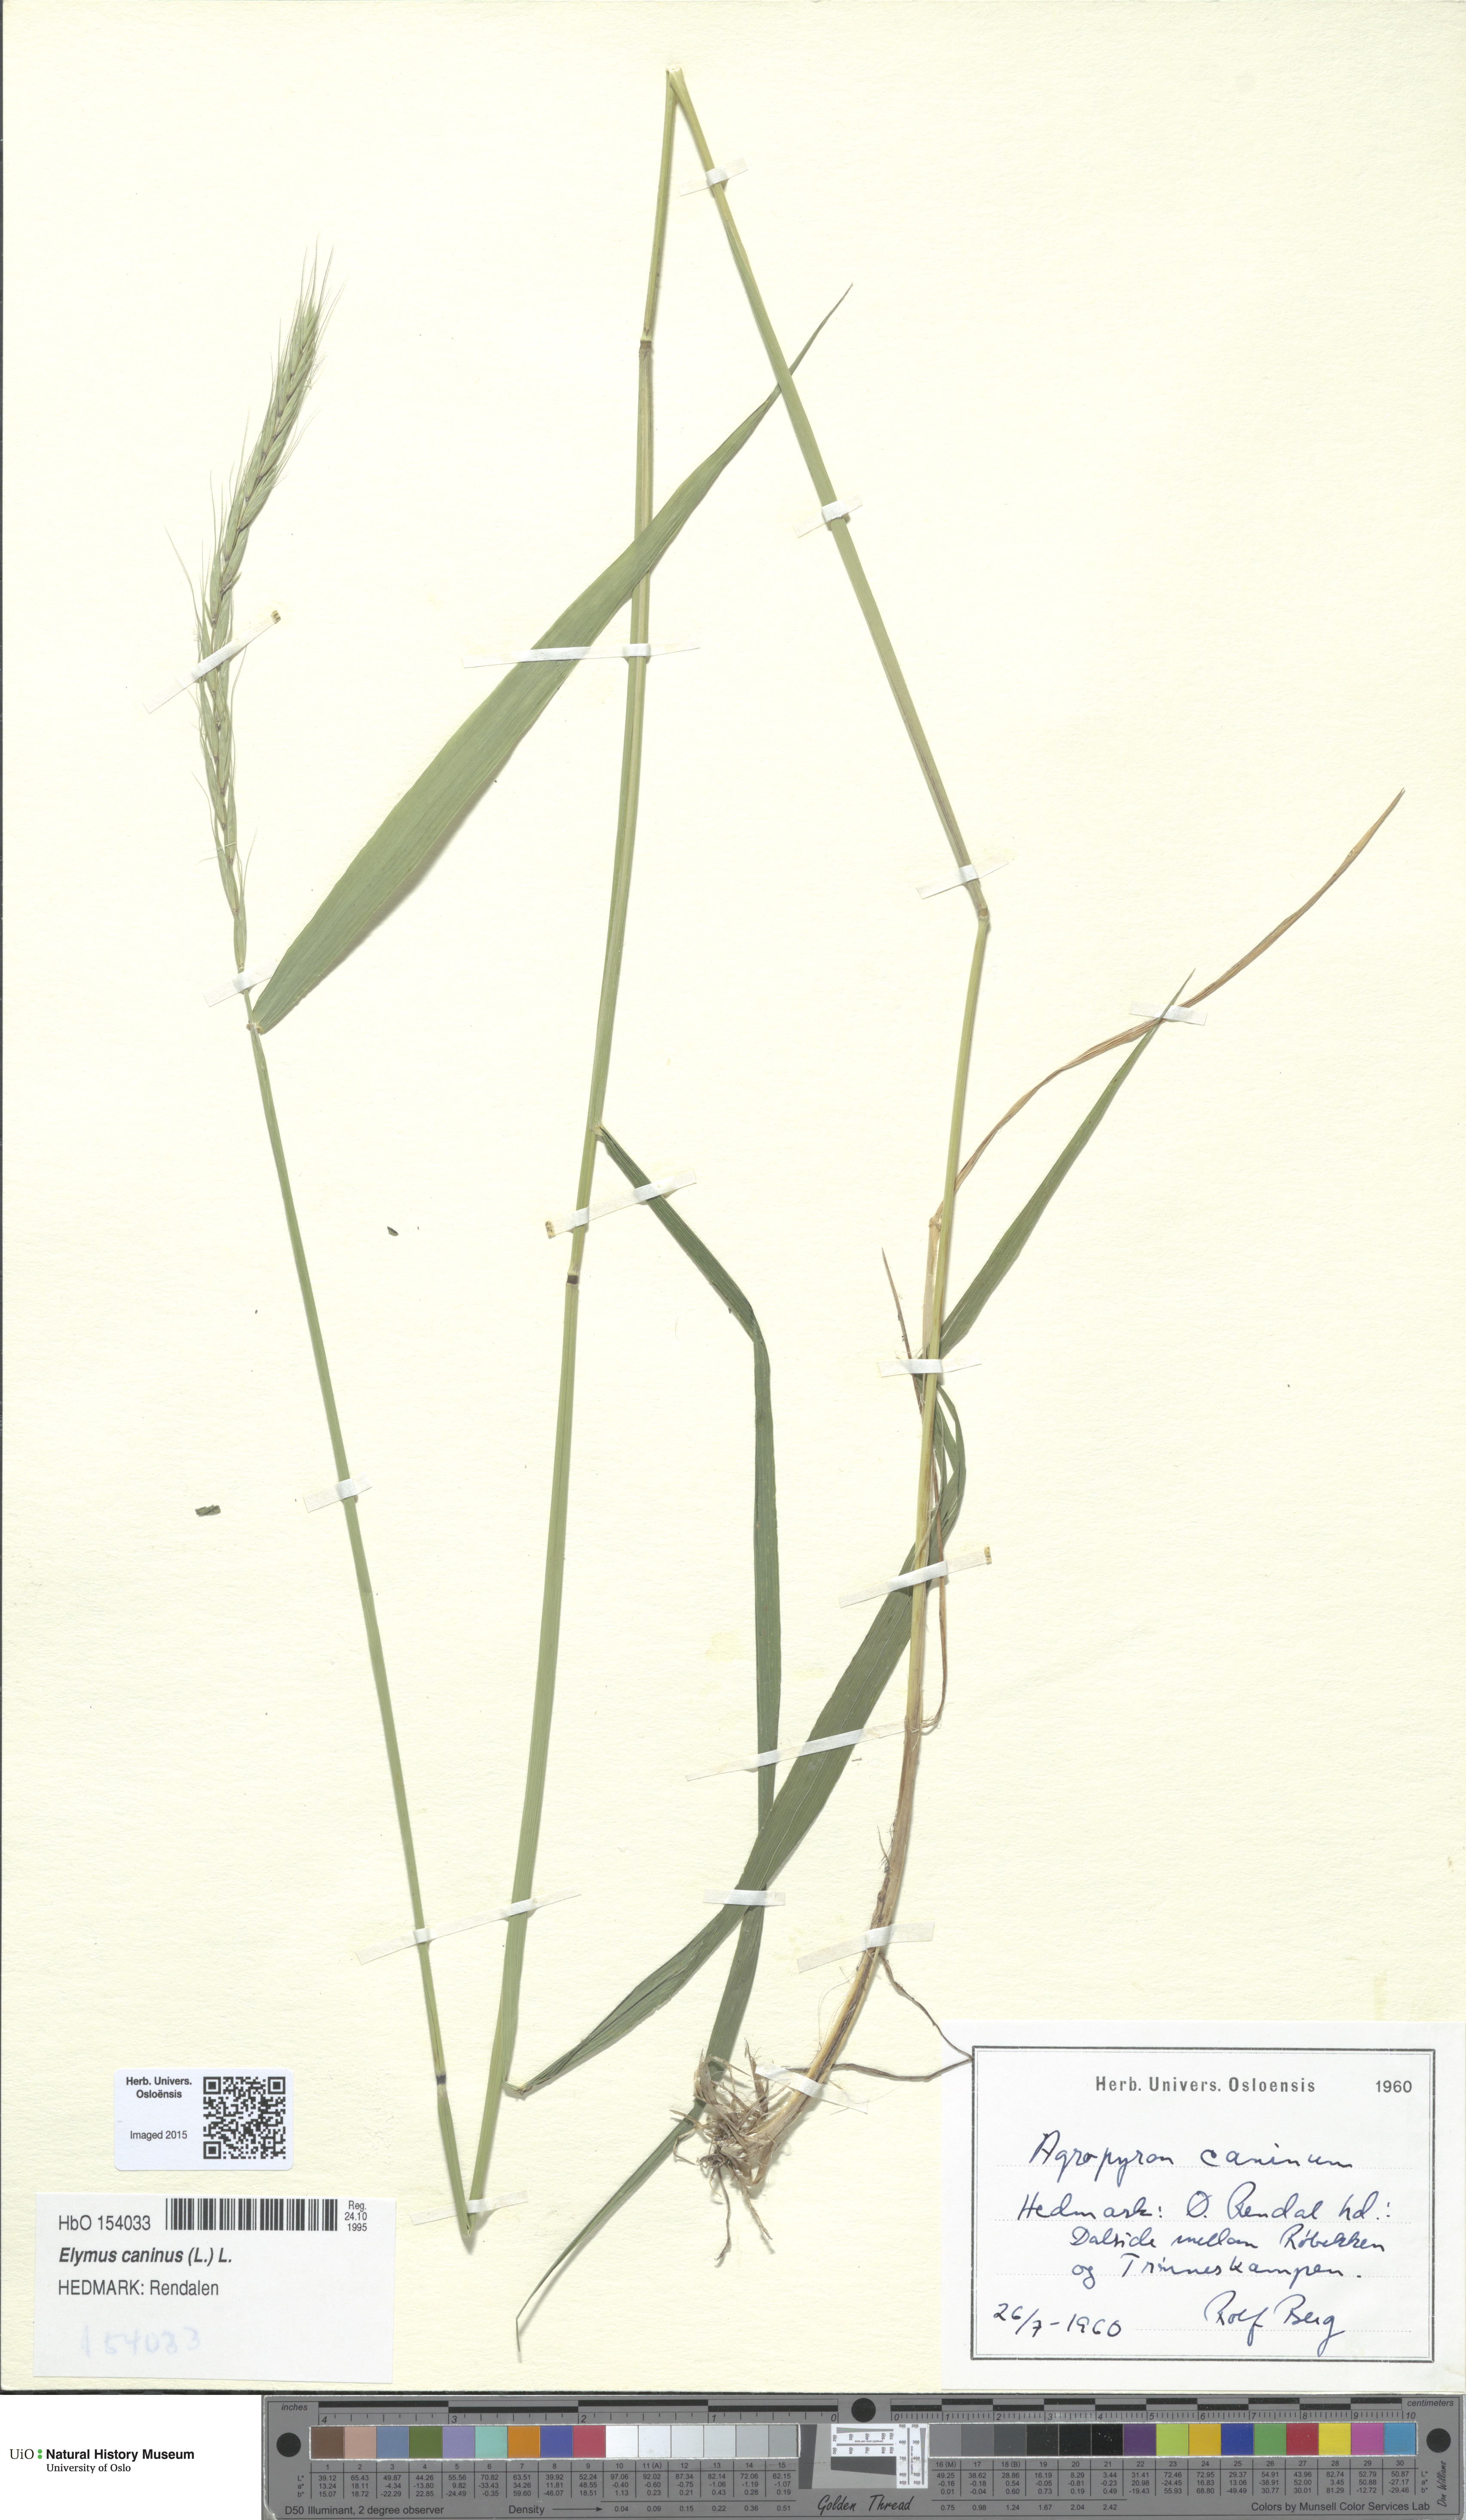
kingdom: Plantae
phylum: Tracheophyta
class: Liliopsida
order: Poales
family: Poaceae
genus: Elymus
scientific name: Elymus caninus
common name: Bearded couch
